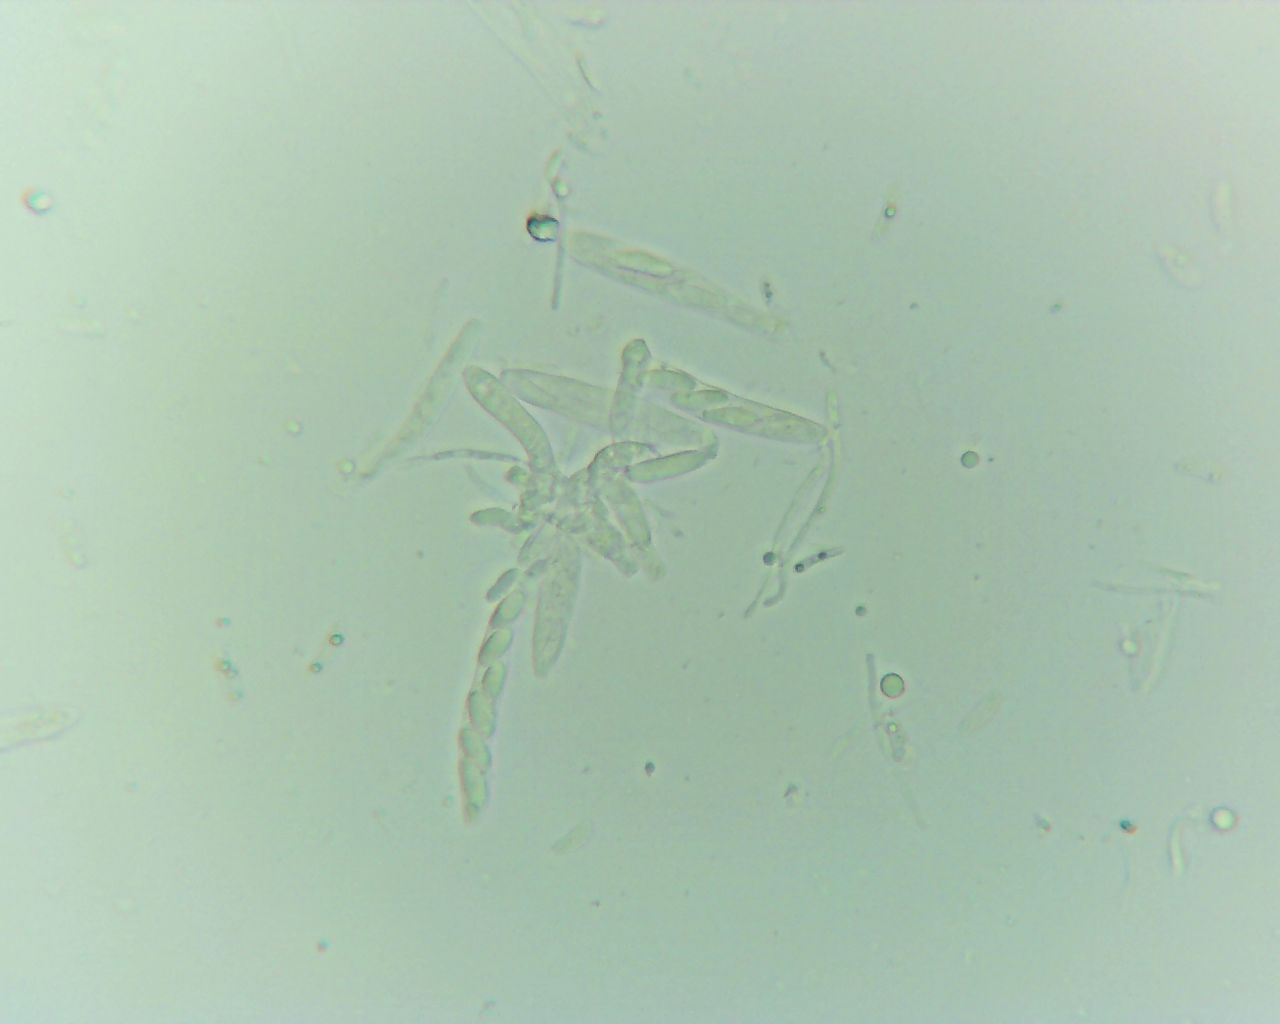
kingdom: Fungi
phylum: Ascomycota
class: Leotiomycetes
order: Helotiales
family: Hyaloscyphaceae
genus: Hyaloscypha
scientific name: Hyaloscypha
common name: klarskive
